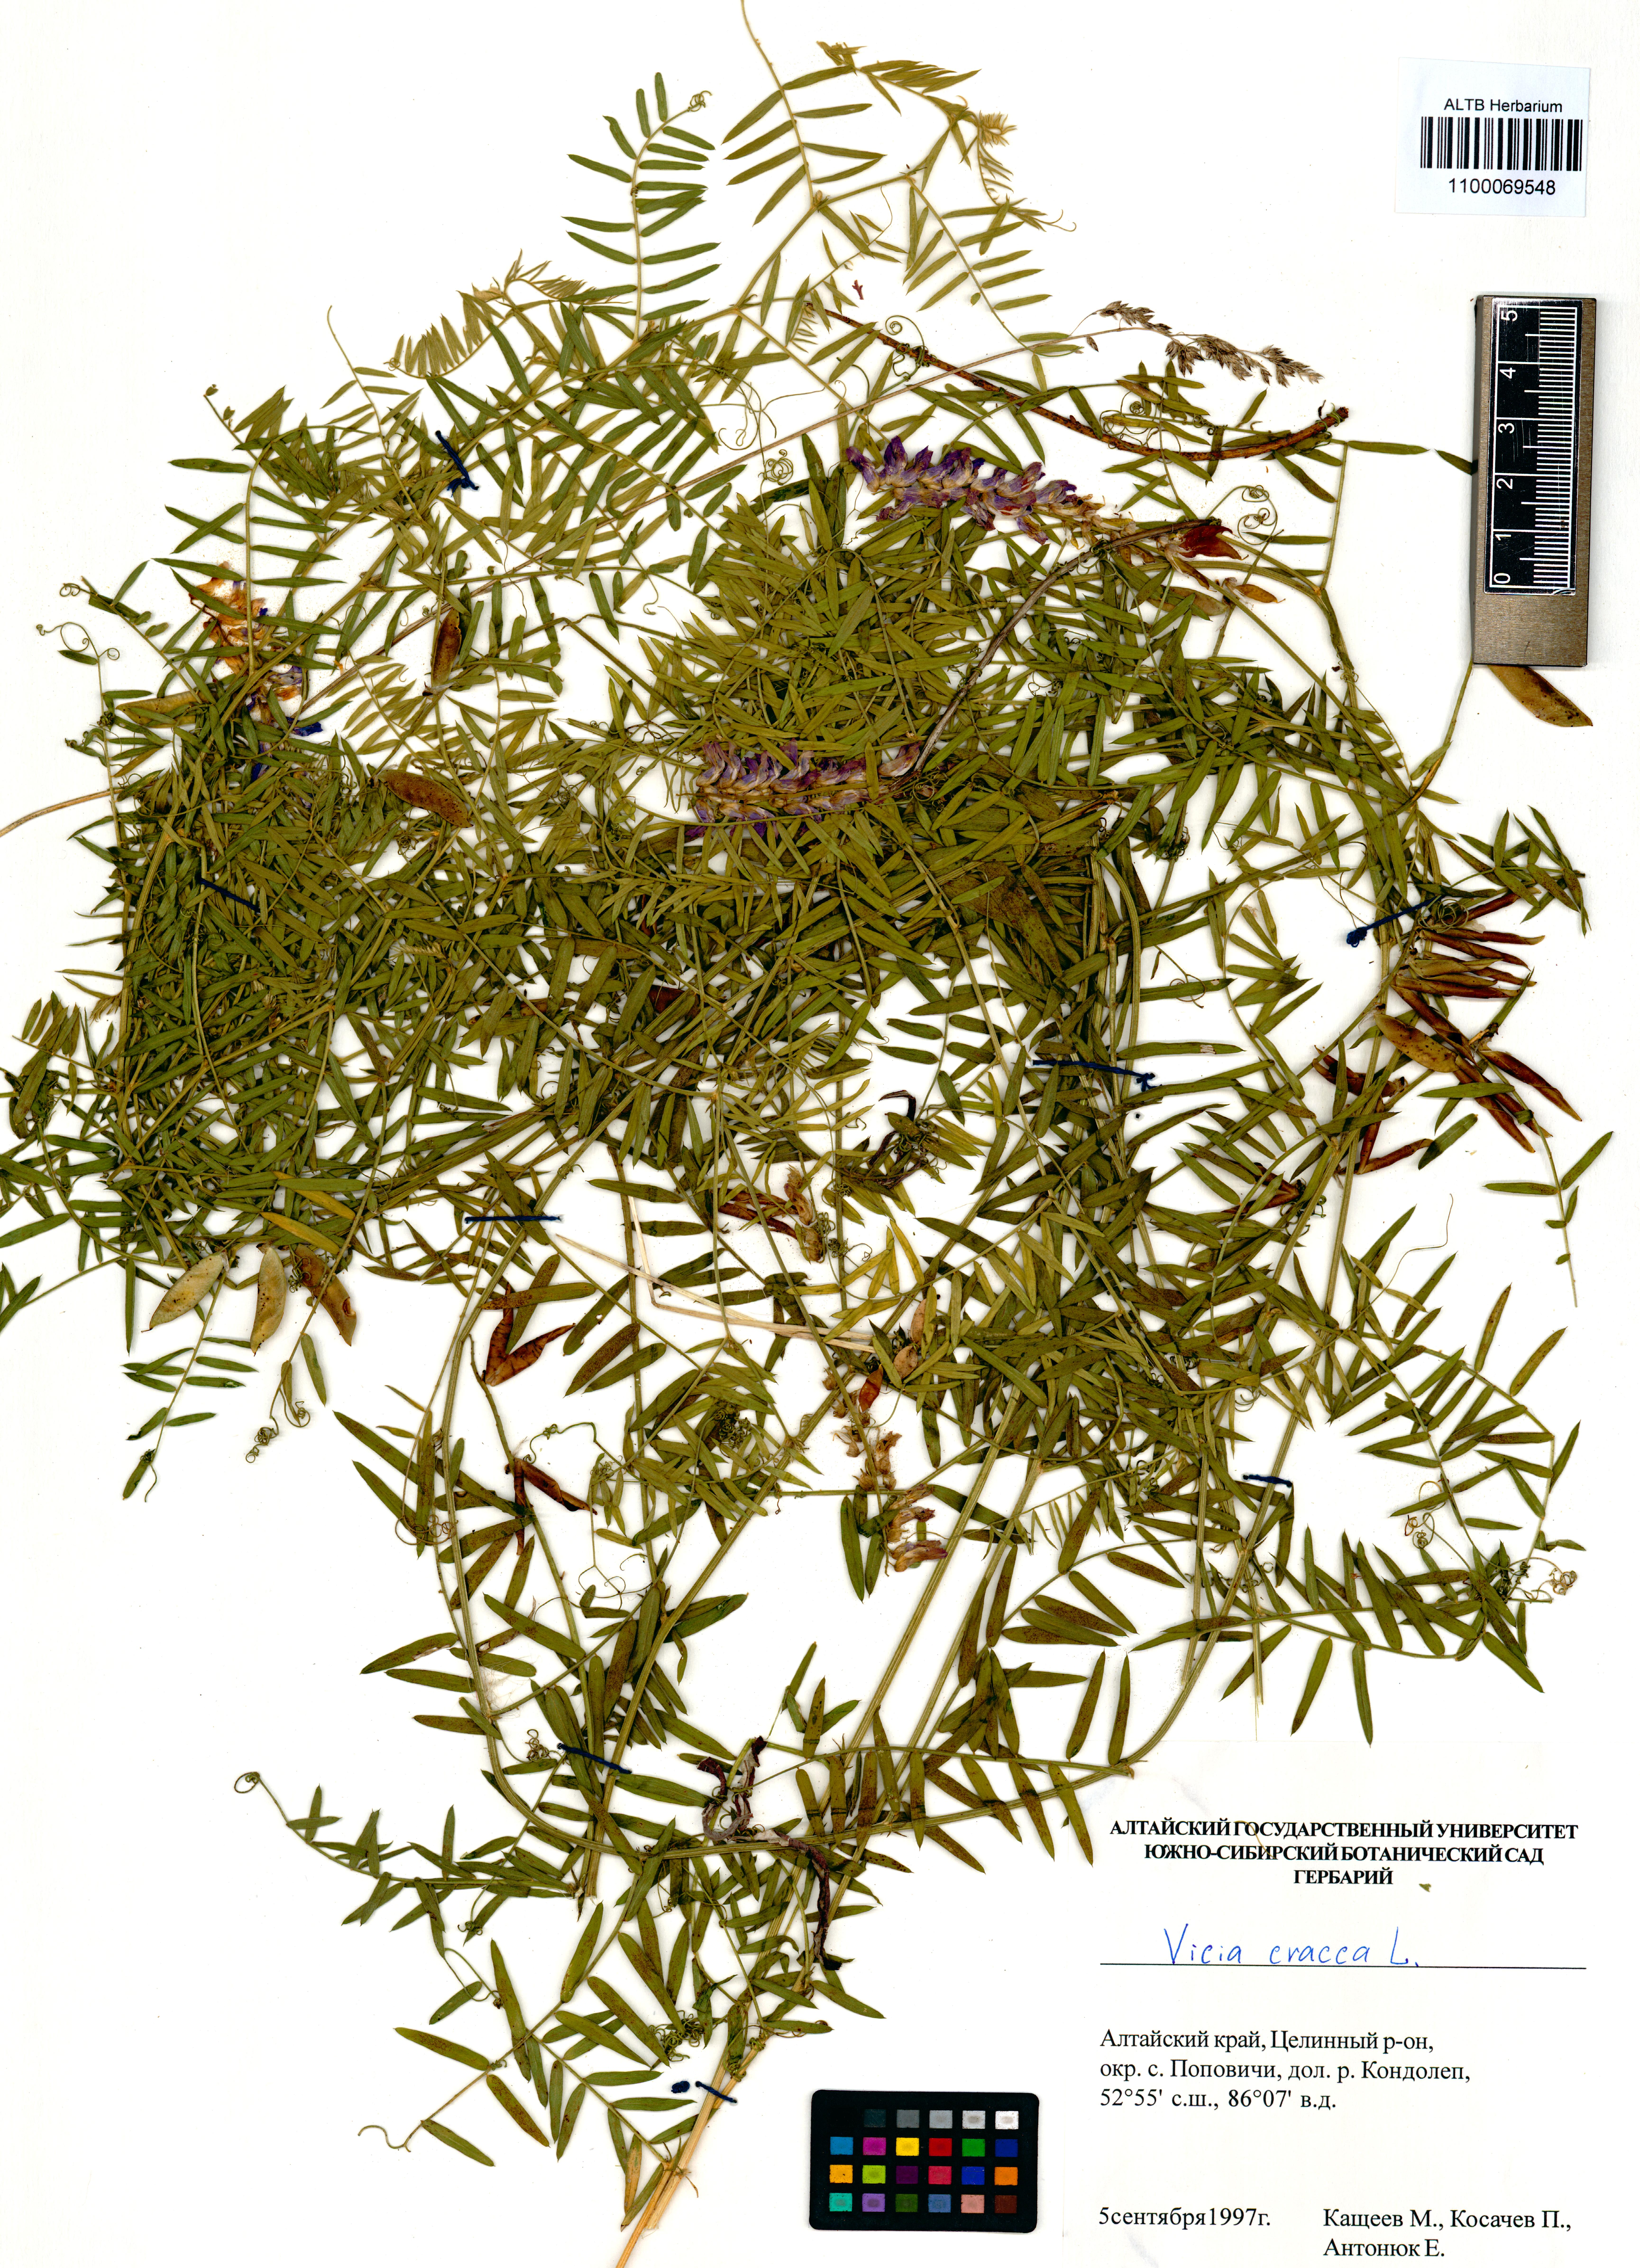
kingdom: Plantae
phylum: Tracheophyta
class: Magnoliopsida
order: Fabales
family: Fabaceae
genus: Vicia
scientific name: Vicia cracca
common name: Bird vetch
